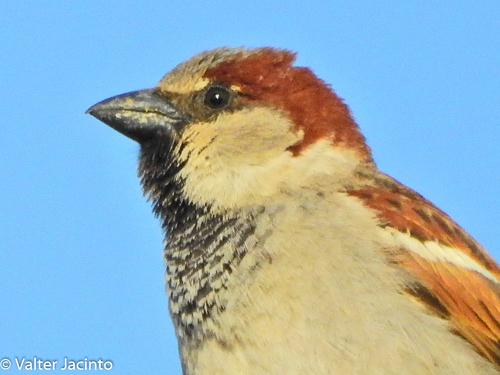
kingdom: Animalia
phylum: Chordata
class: Aves
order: Passeriformes
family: Passeridae
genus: Passer
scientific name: Passer domesticus
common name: House sparrow
